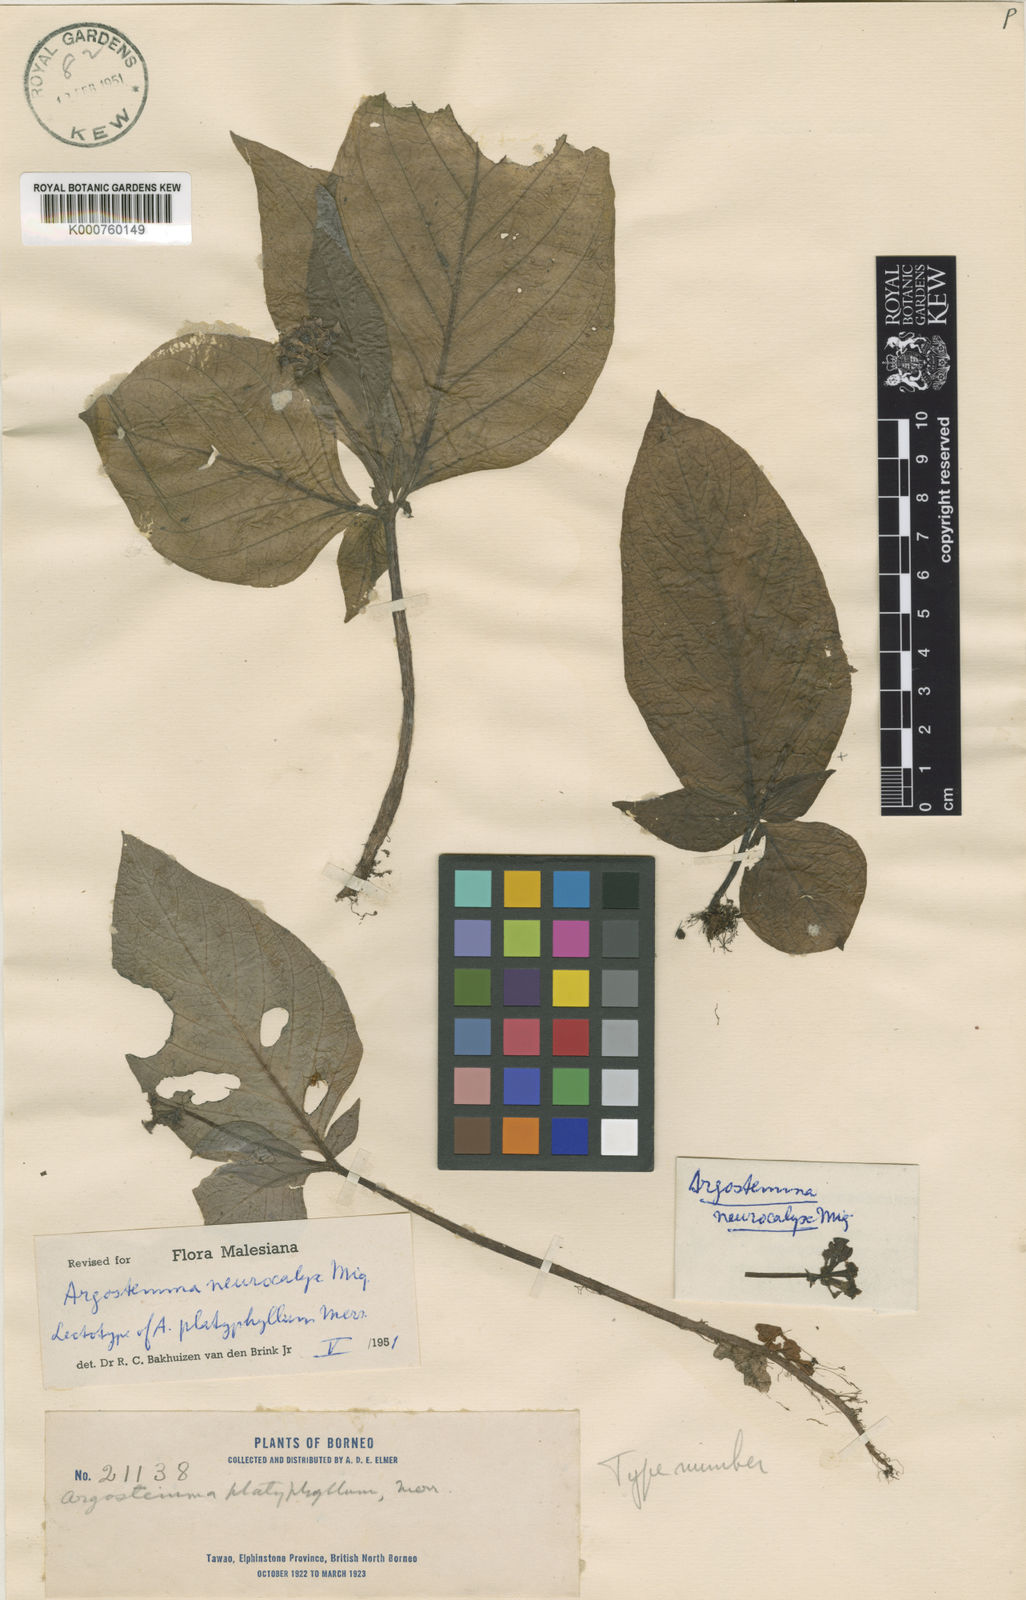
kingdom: Plantae
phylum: Tracheophyta
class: Magnoliopsida
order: Gentianales
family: Rubiaceae
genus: Argostemma
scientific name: Argostemma neurocalyx
